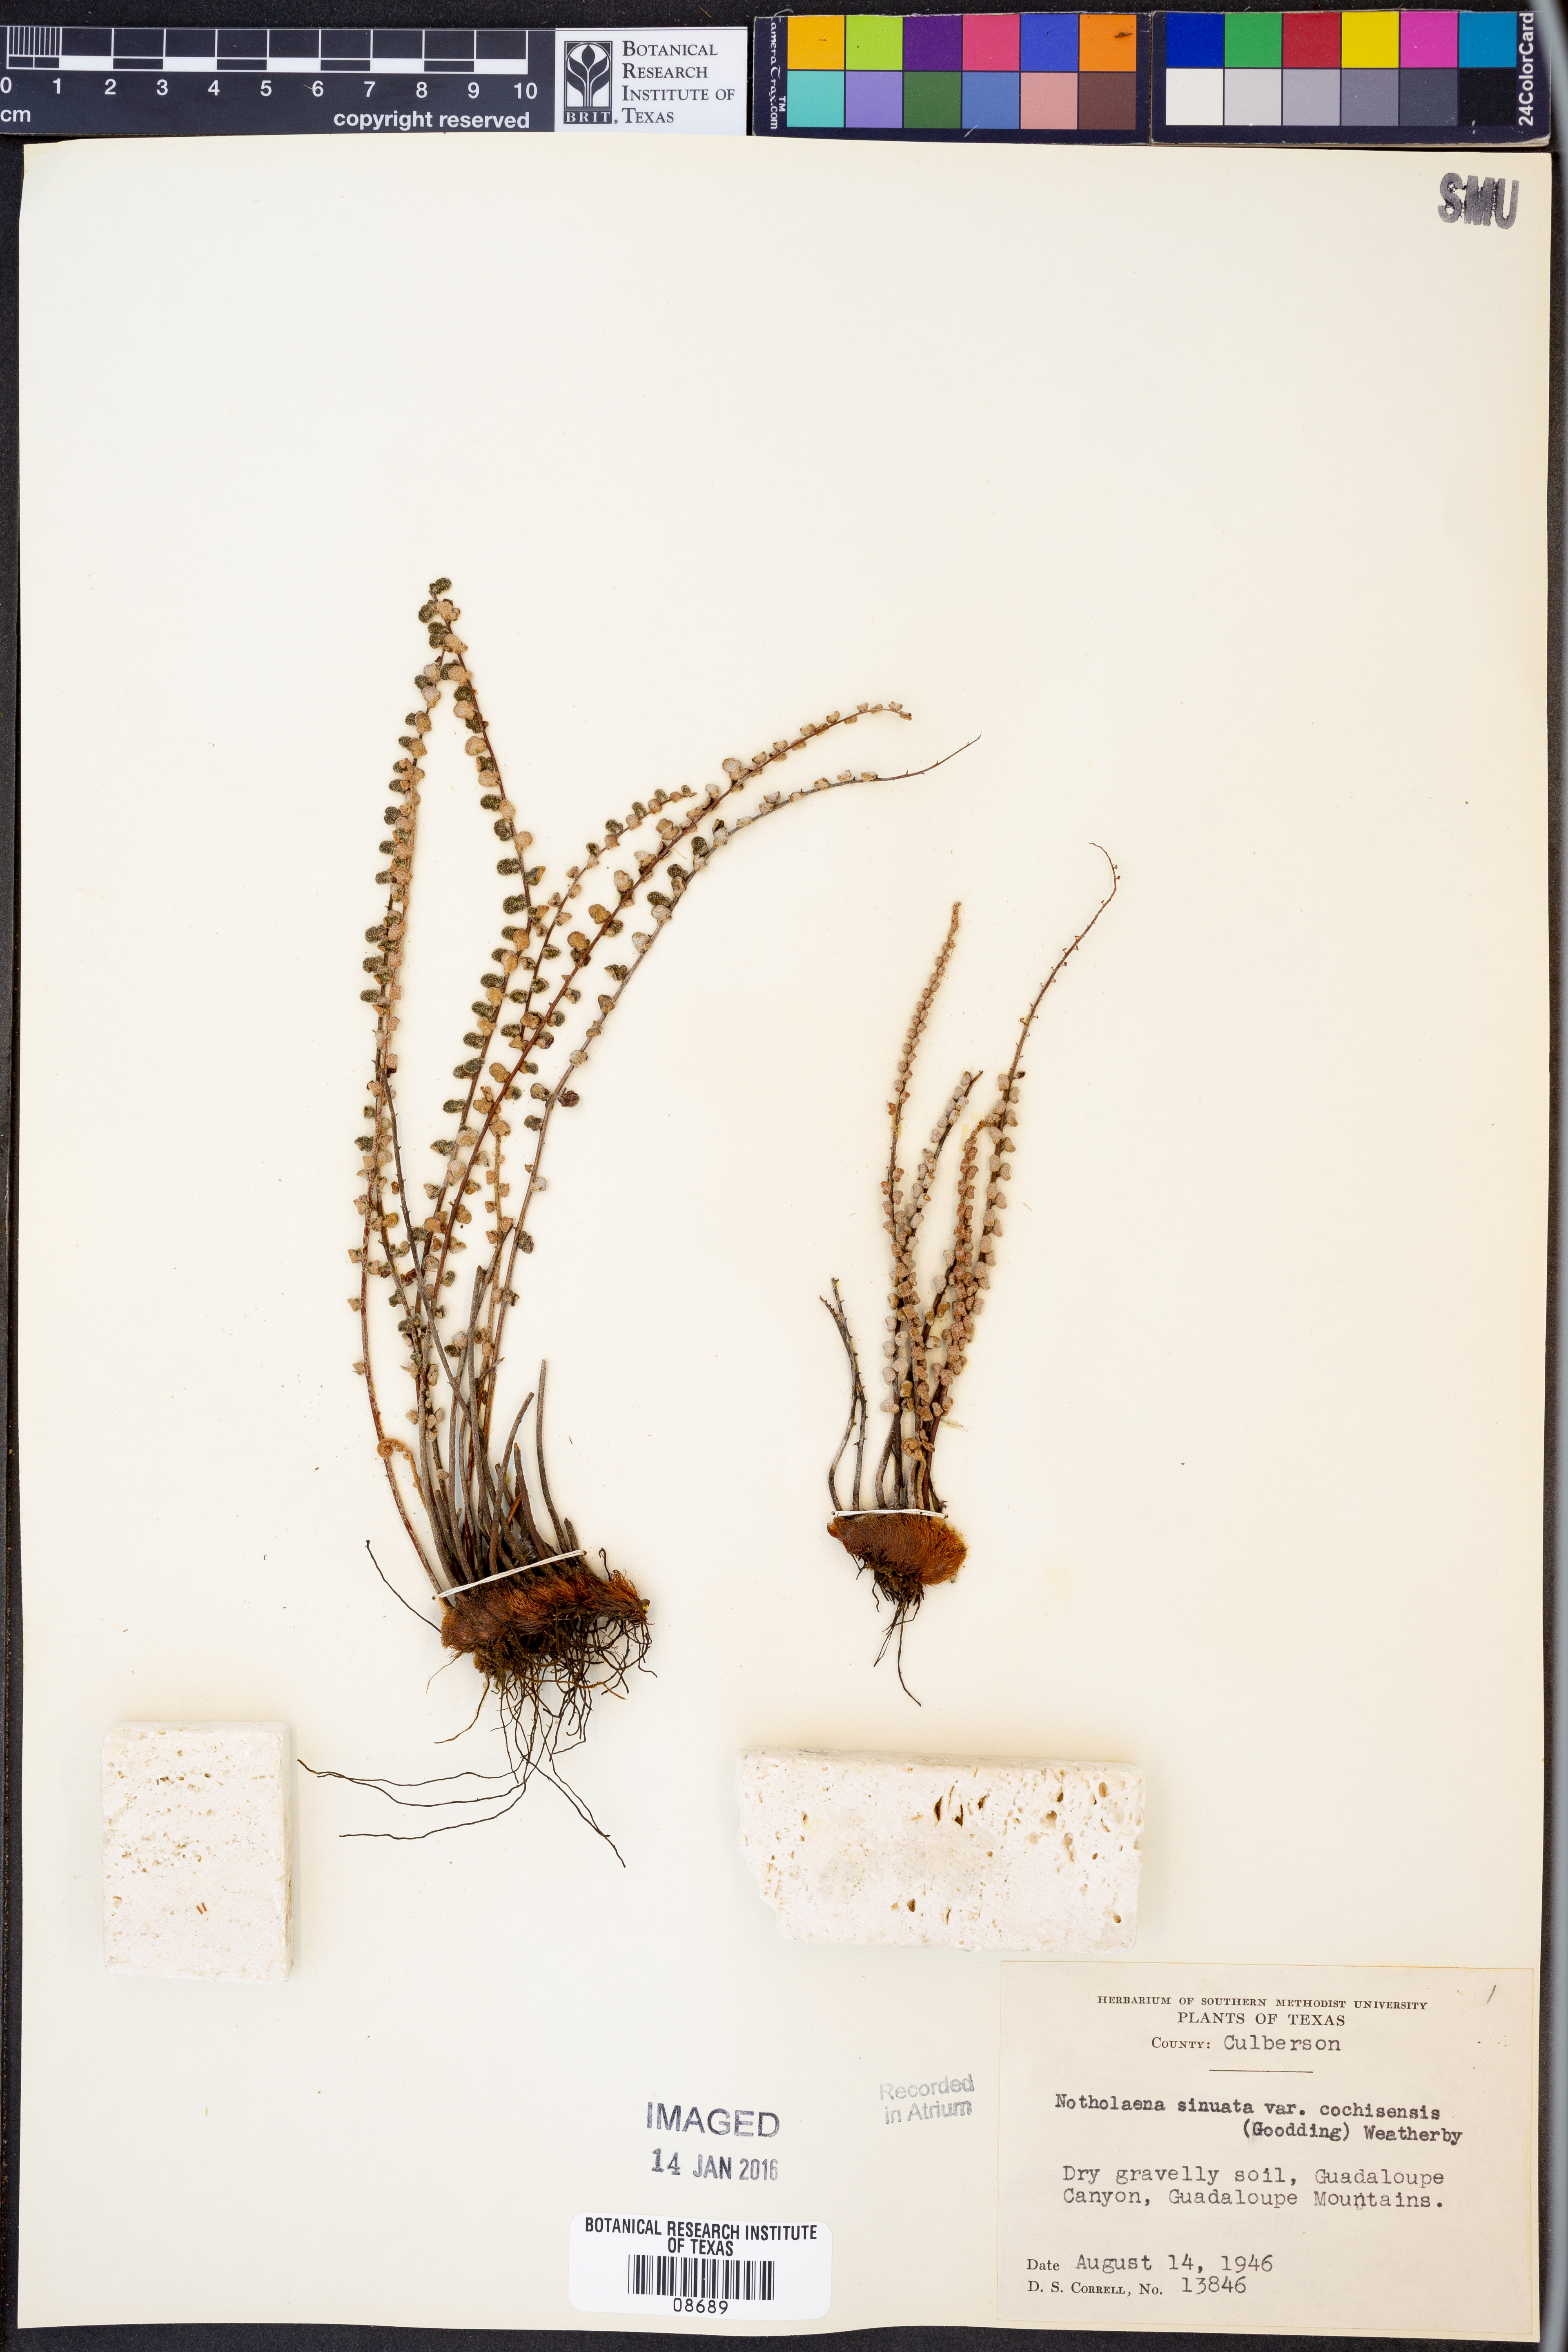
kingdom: Plantae
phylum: Tracheophyta
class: Polypodiopsida
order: Polypodiales
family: Pteridaceae
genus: Astrolepis
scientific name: Astrolepis cochisensis
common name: Scaly cloak fern
